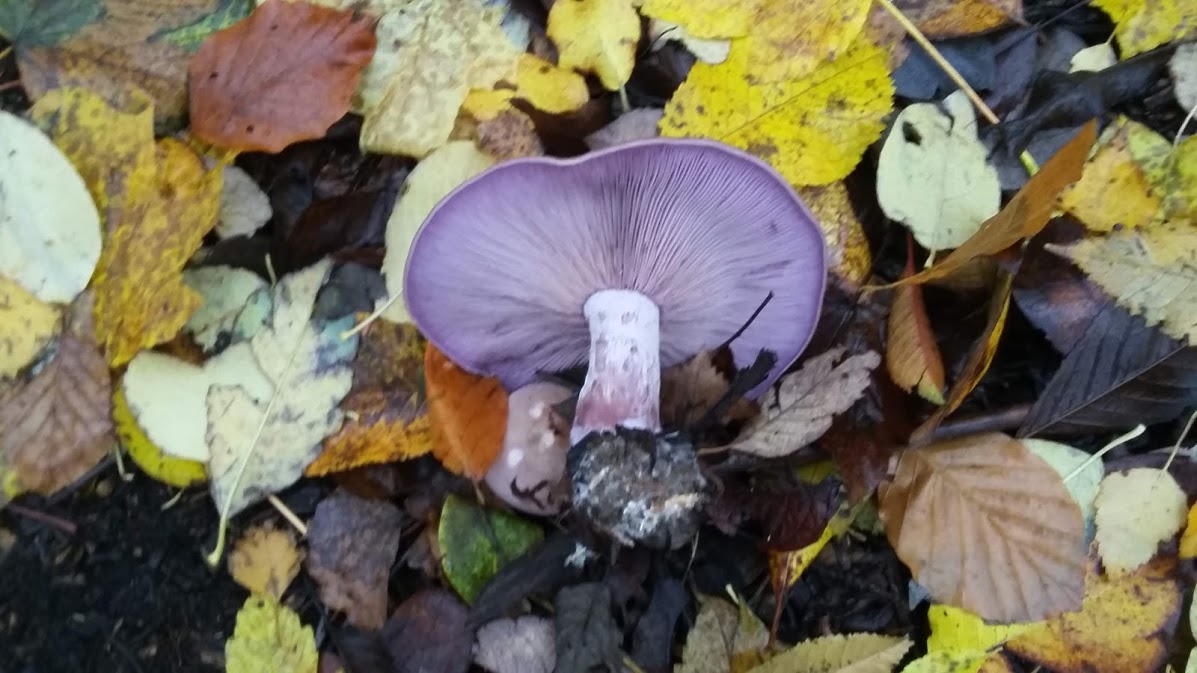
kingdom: Fungi
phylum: Basidiomycota
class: Agaricomycetes
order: Agaricales
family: Tricholomataceae
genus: Lepista
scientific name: Lepista nuda
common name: violet hekseringshat
